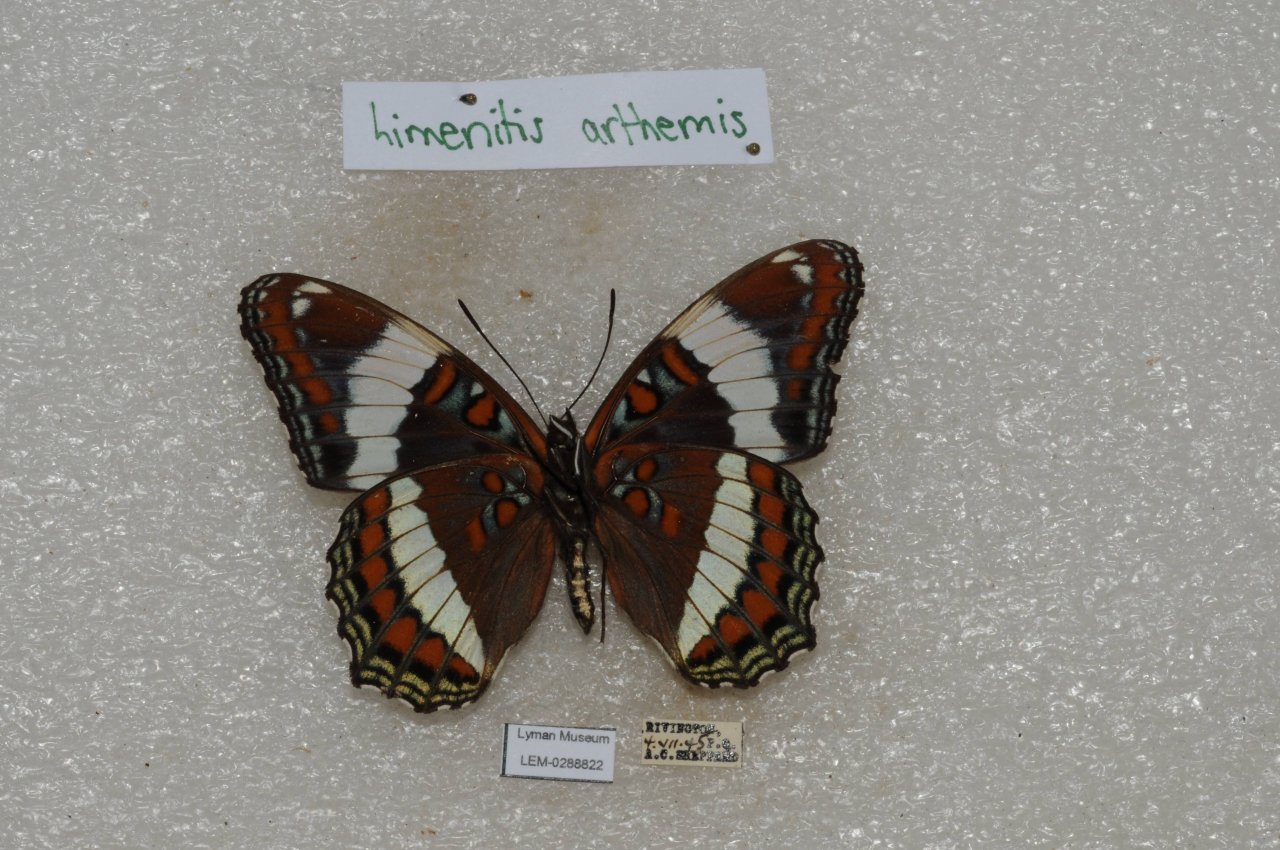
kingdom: Animalia
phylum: Arthropoda
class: Insecta
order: Lepidoptera
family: Nymphalidae
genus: Limenitis
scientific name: Limenitis arthemis
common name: Red-spotted Admiral
